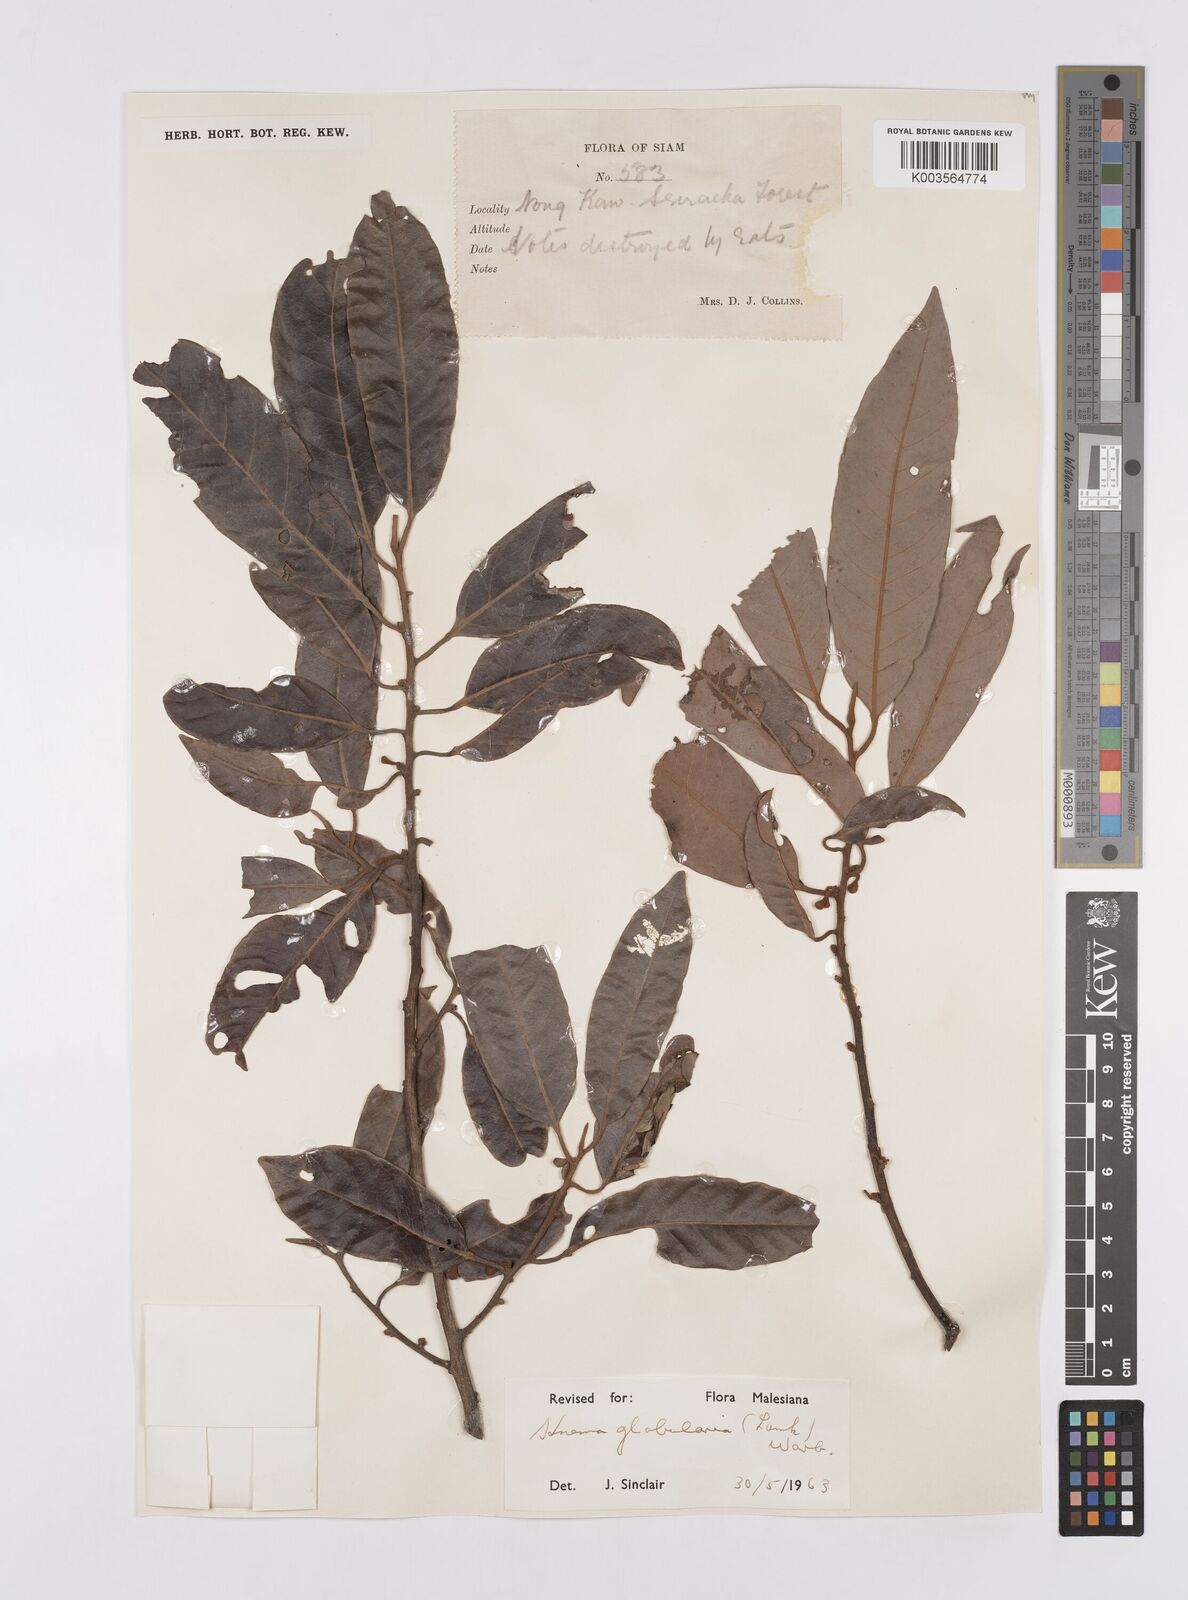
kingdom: Plantae
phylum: Tracheophyta
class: Magnoliopsida
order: Magnoliales
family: Myristicaceae
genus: Knema
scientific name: Knema globularia
